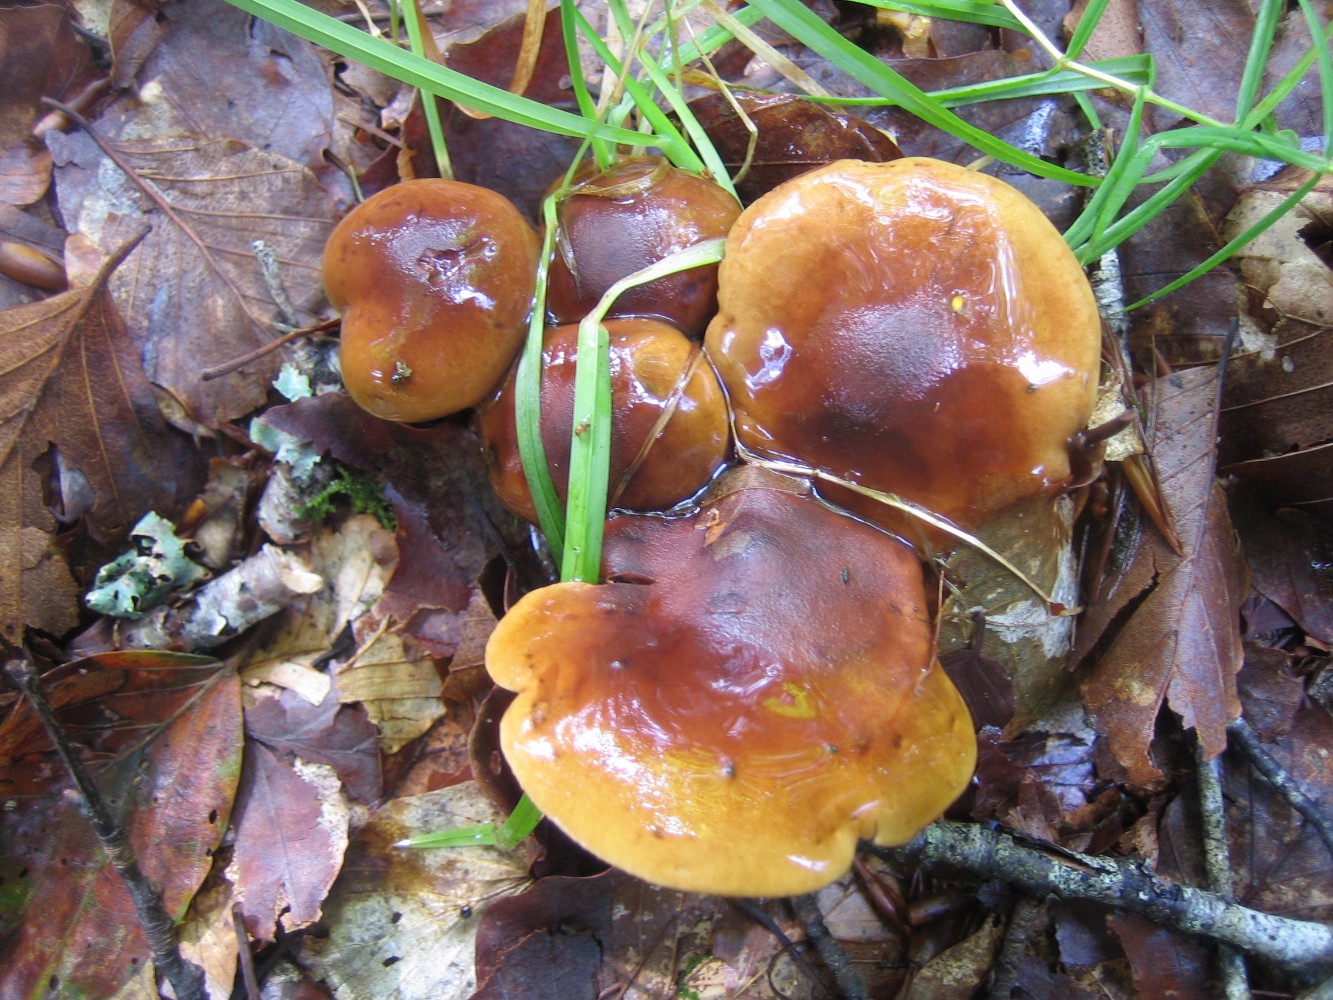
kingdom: Fungi
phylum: Basidiomycota
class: Agaricomycetes
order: Agaricales
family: Tricholomataceae
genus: Tricholoma
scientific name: Tricholoma ustale
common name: sveden ridderhat
